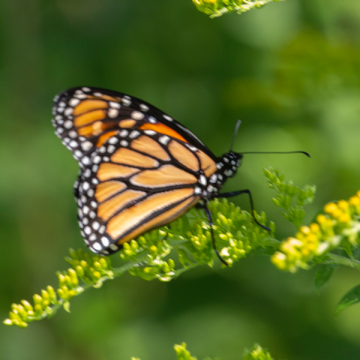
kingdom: Animalia
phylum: Arthropoda
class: Insecta
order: Lepidoptera
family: Nymphalidae
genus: Danaus
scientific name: Danaus plexippus
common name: Monarch
